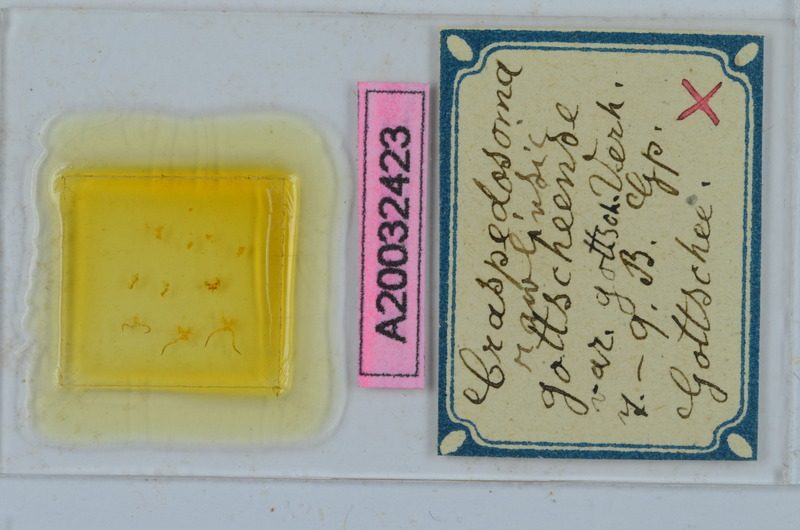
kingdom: Animalia
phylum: Arthropoda
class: Diplopoda
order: Chordeumatida
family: Craspedosomatidae
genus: Craspedosoma
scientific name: Craspedosoma slavum
